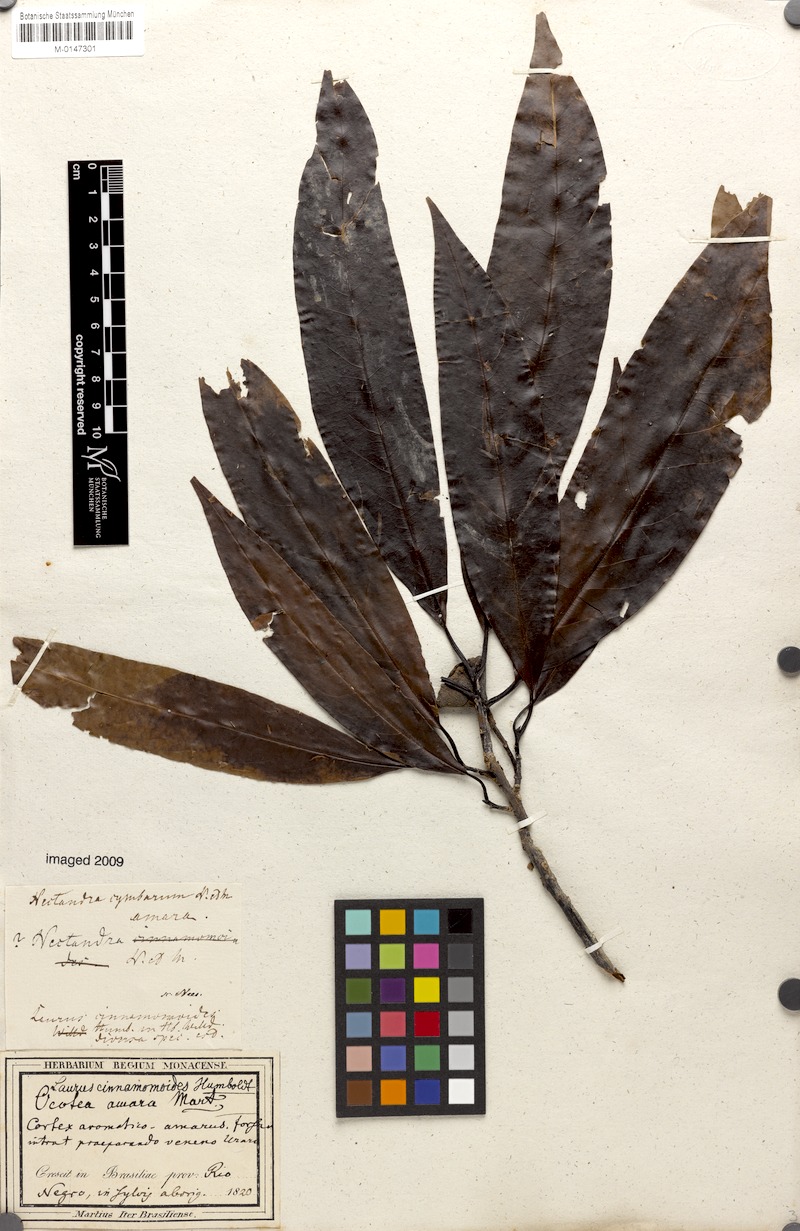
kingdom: Plantae
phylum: Tracheophyta
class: Magnoliopsida
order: Laurales
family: Lauraceae
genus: Mespilodaphne
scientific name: Mespilodaphne cymbarum
